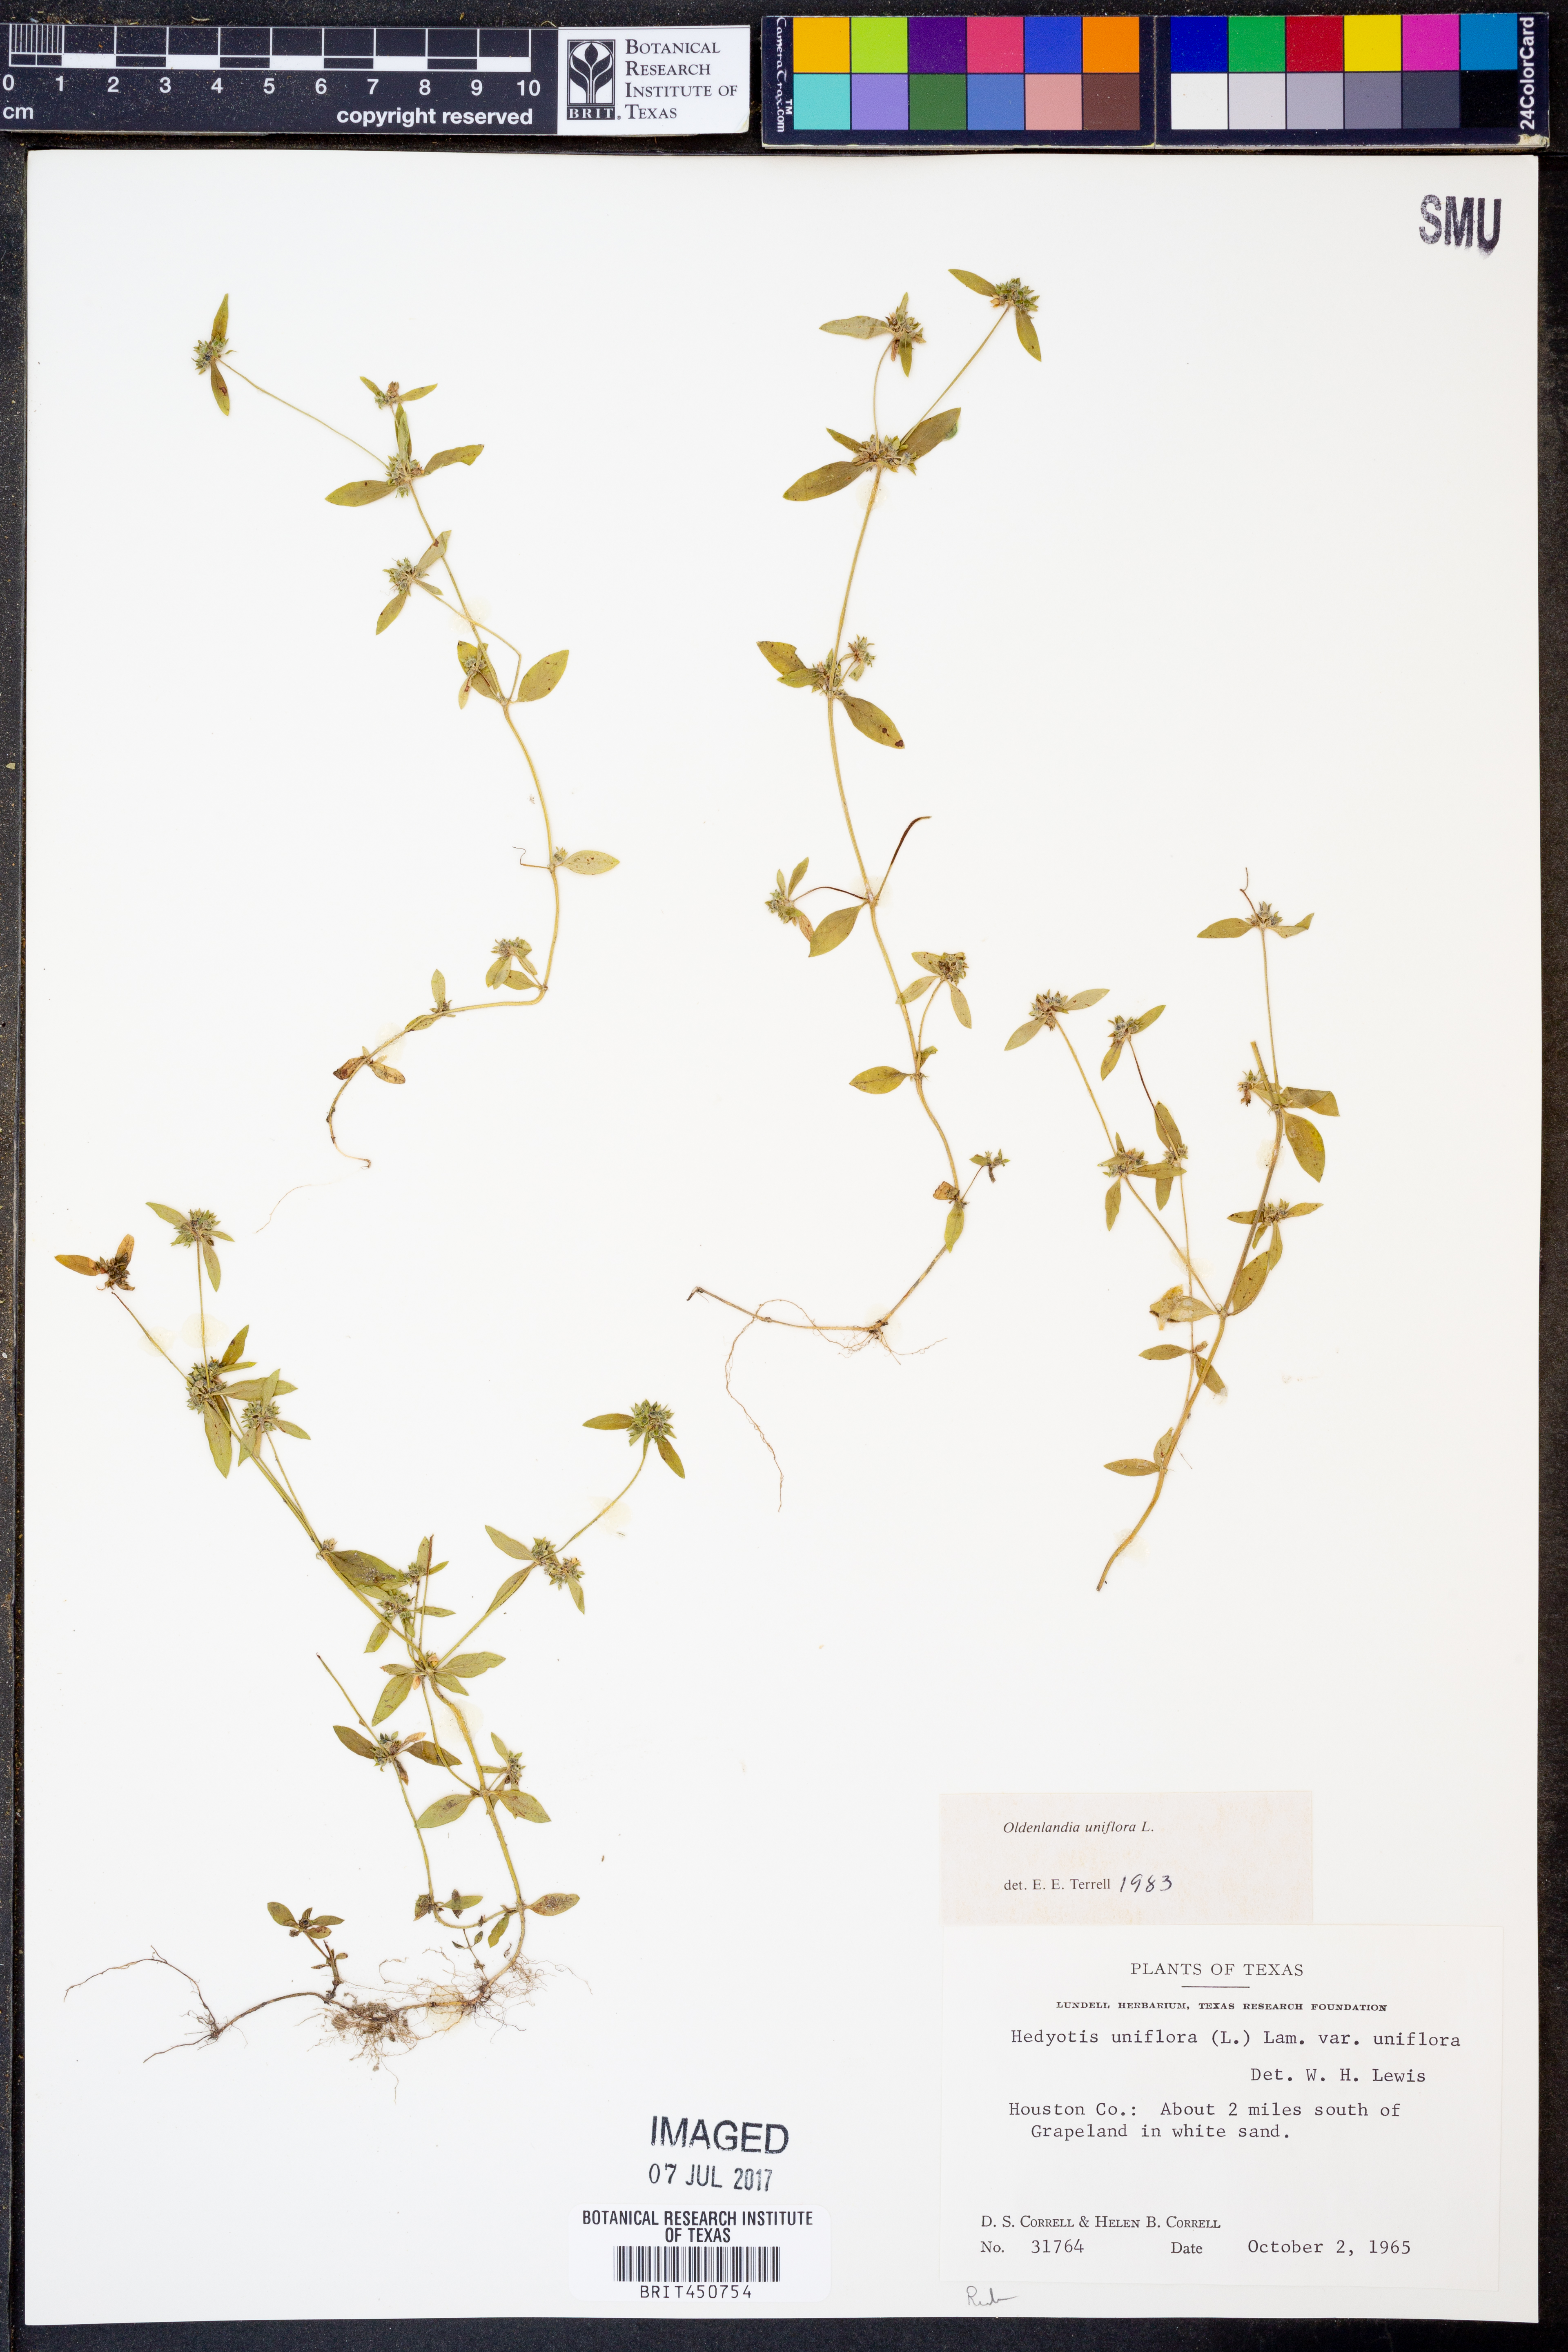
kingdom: Plantae
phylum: Tracheophyta
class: Magnoliopsida
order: Gentianales
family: Rubiaceae
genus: Edrastima
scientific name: Edrastima uniflora
